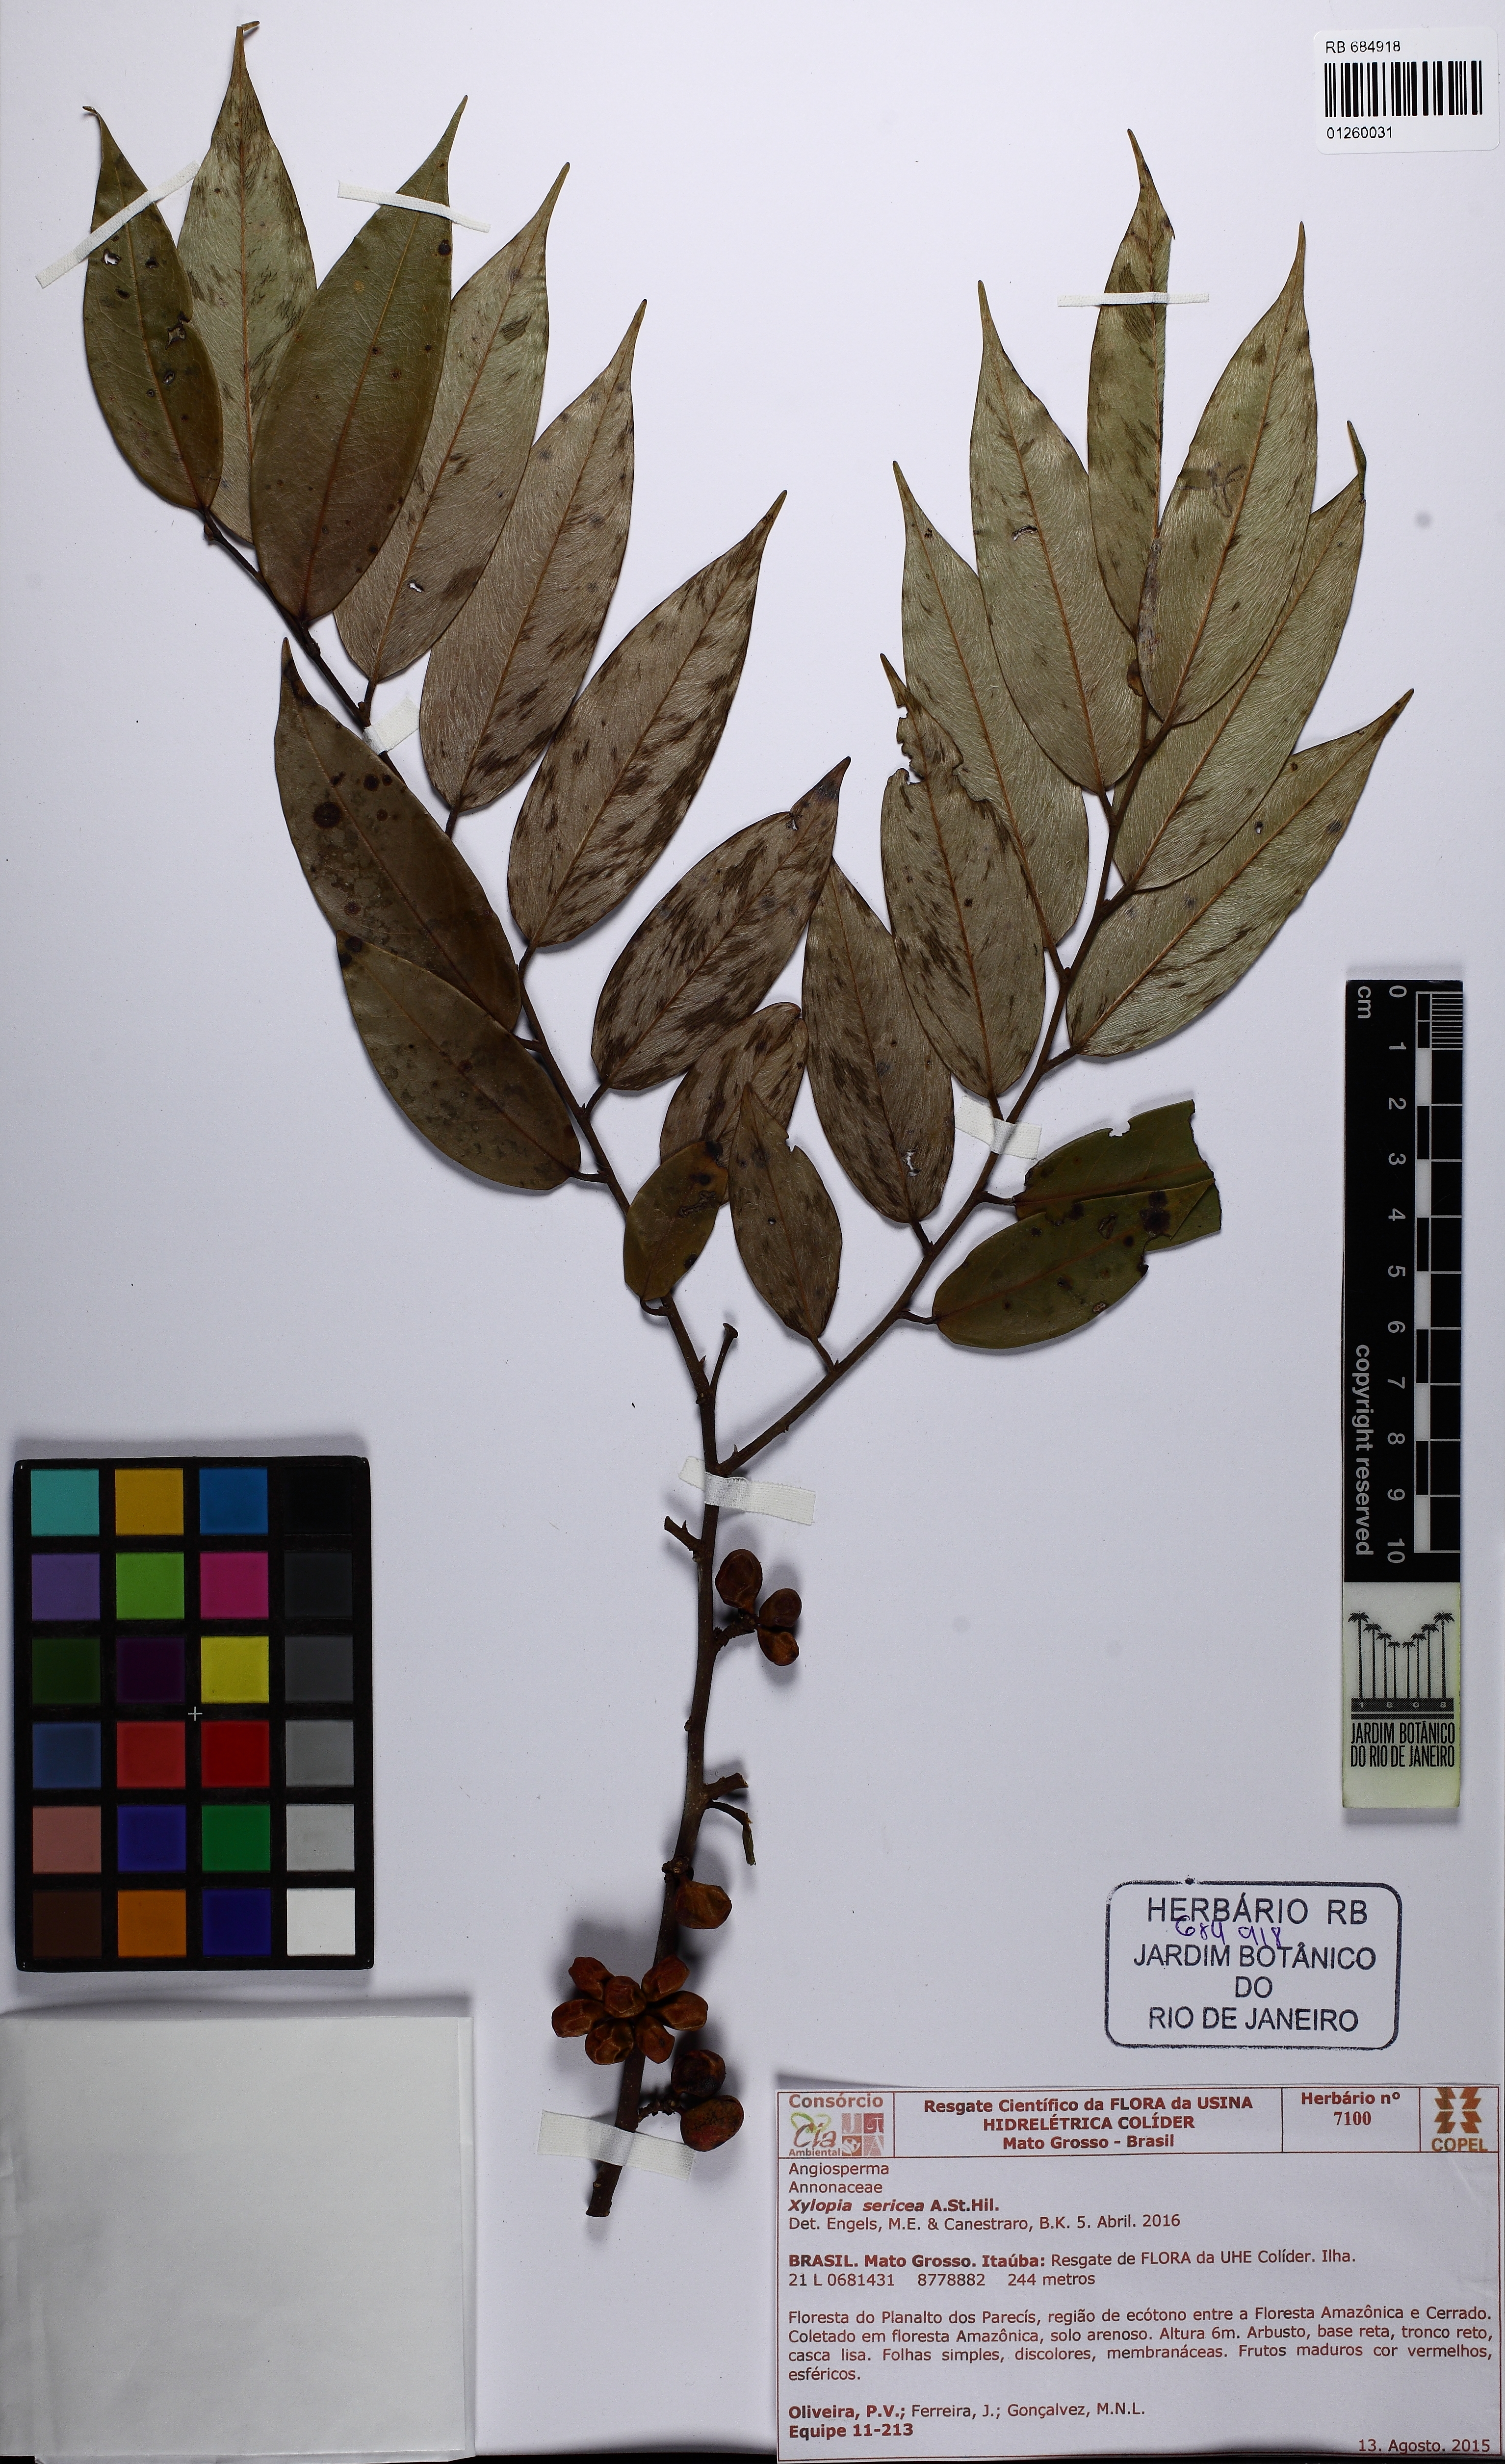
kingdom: Plantae
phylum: Tracheophyta
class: Magnoliopsida
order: Magnoliales
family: Annonaceae
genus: Xylopia
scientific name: Xylopia sericea
